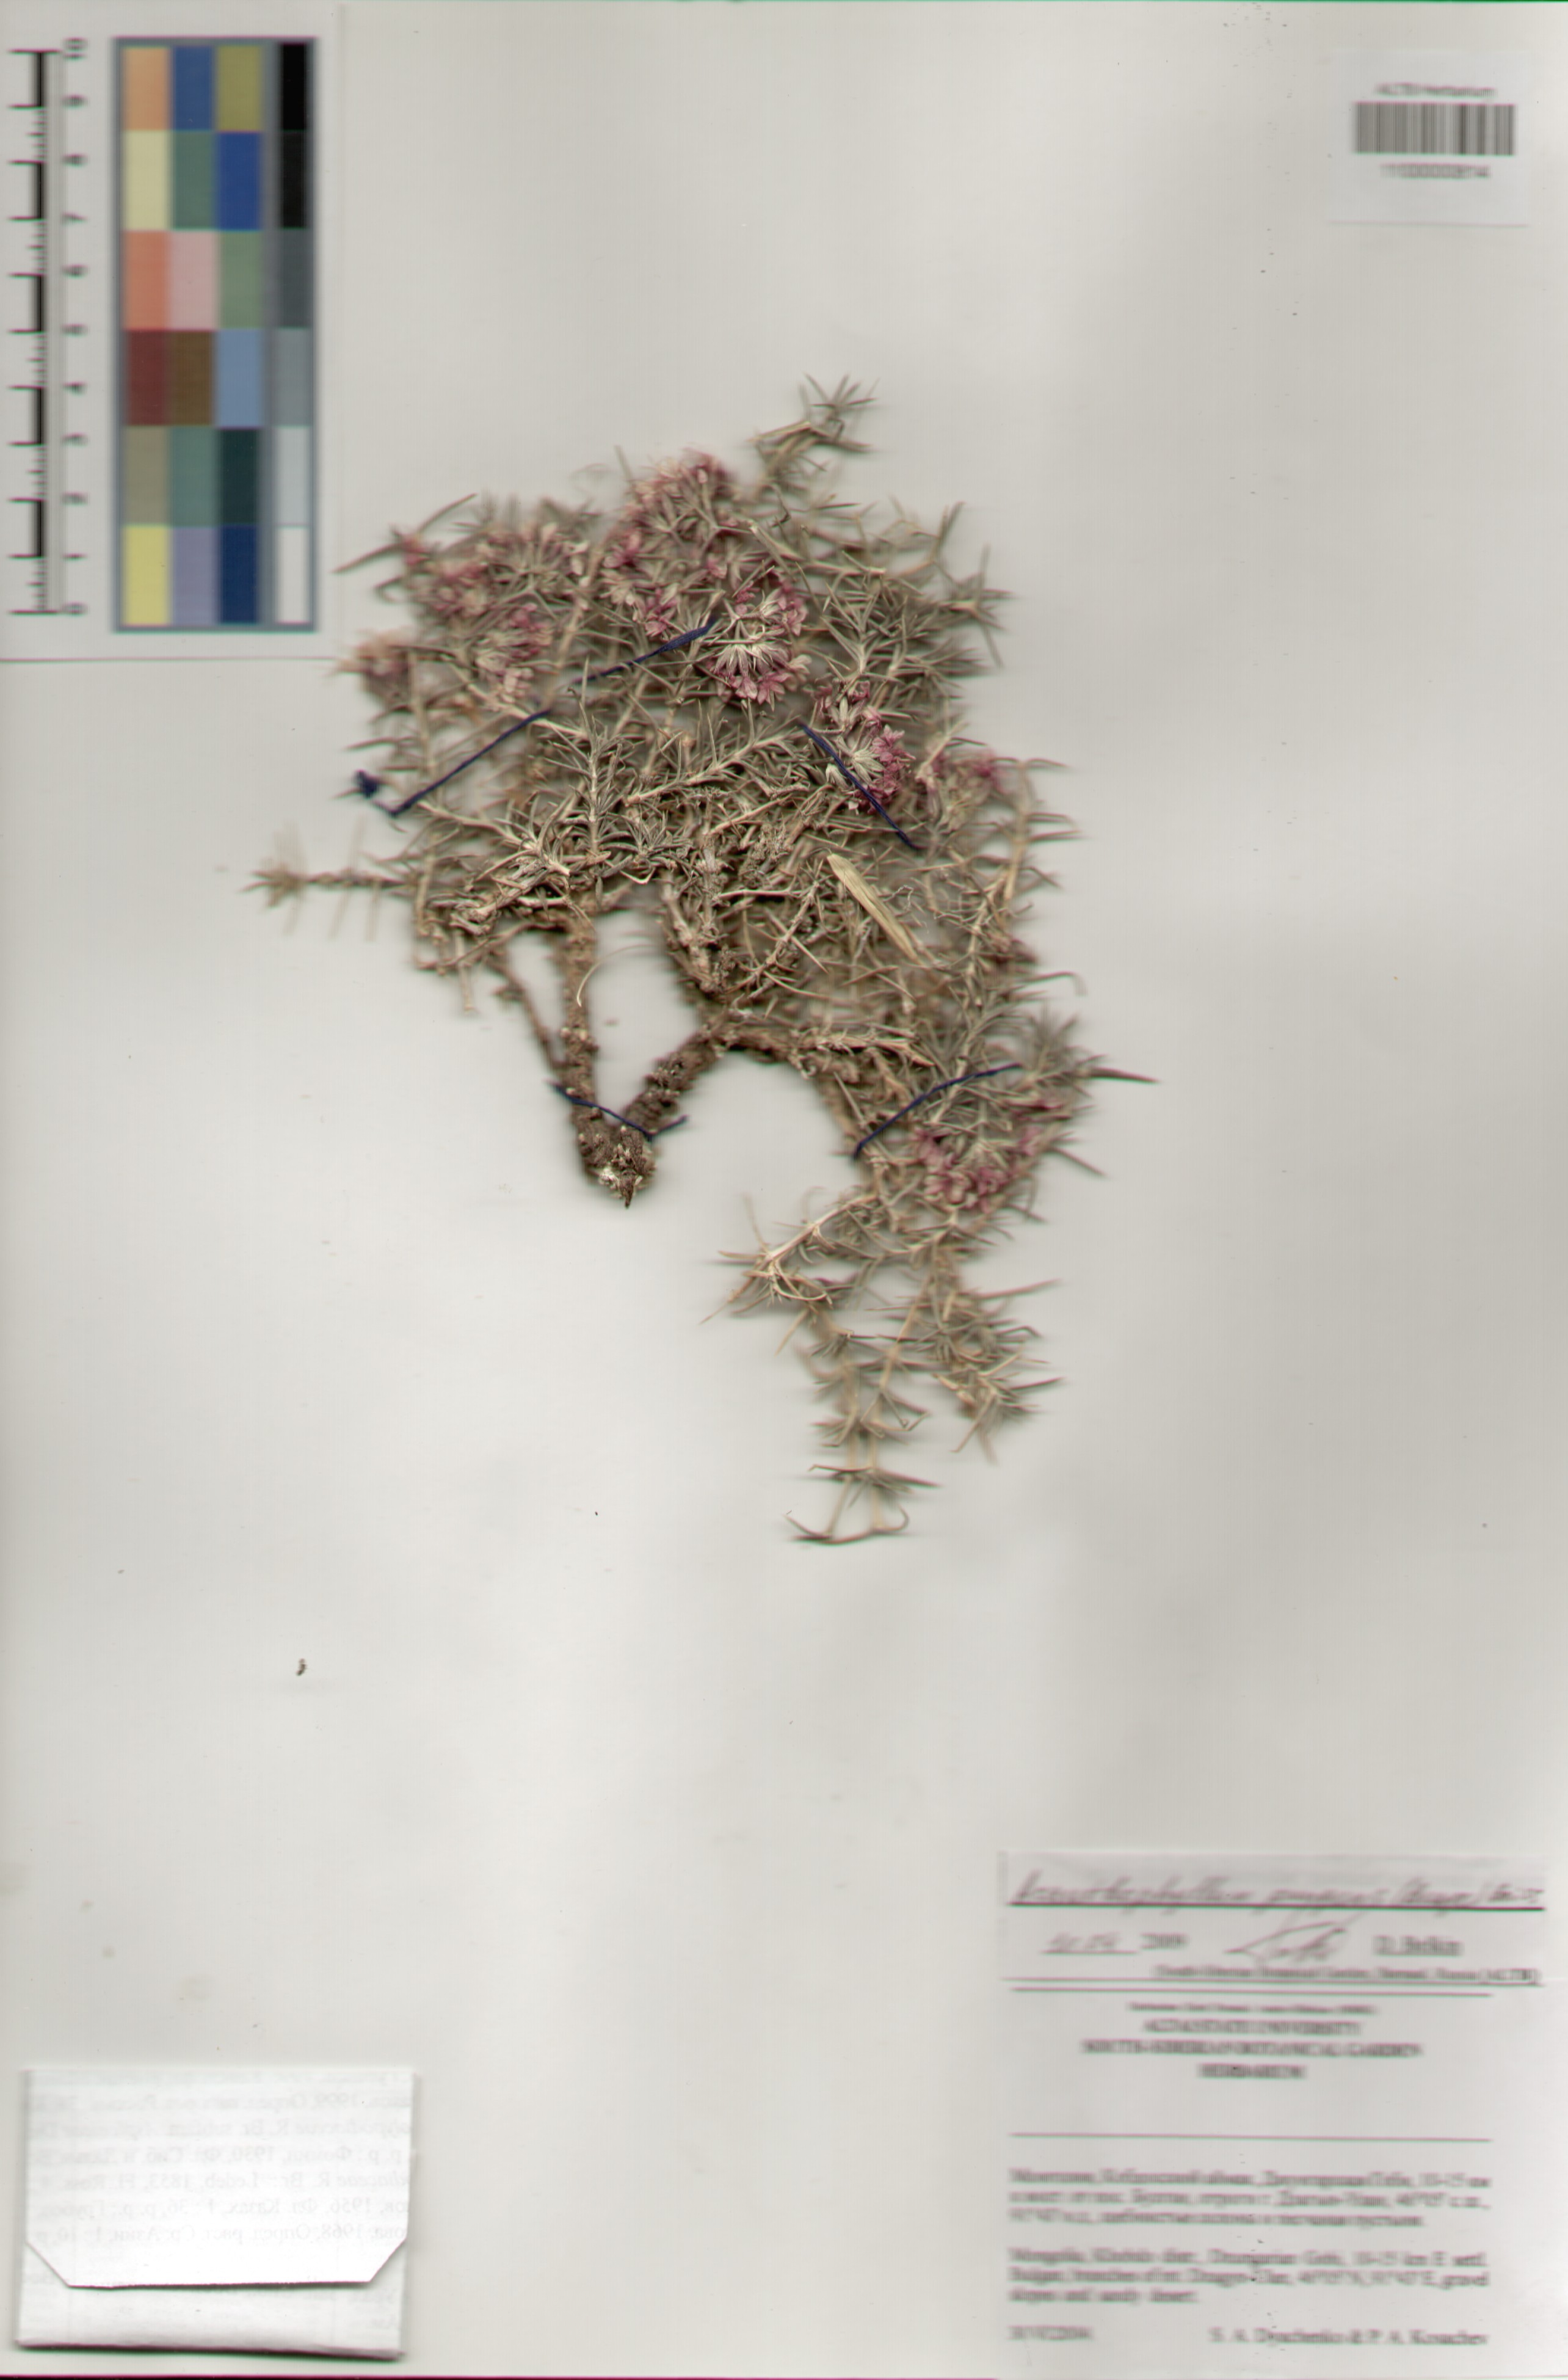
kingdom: Plantae
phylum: Tracheophyta
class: Magnoliopsida
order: Caryophyllales
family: Caryophyllaceae
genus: Acanthophyllum
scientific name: Acanthophyllum pungens
